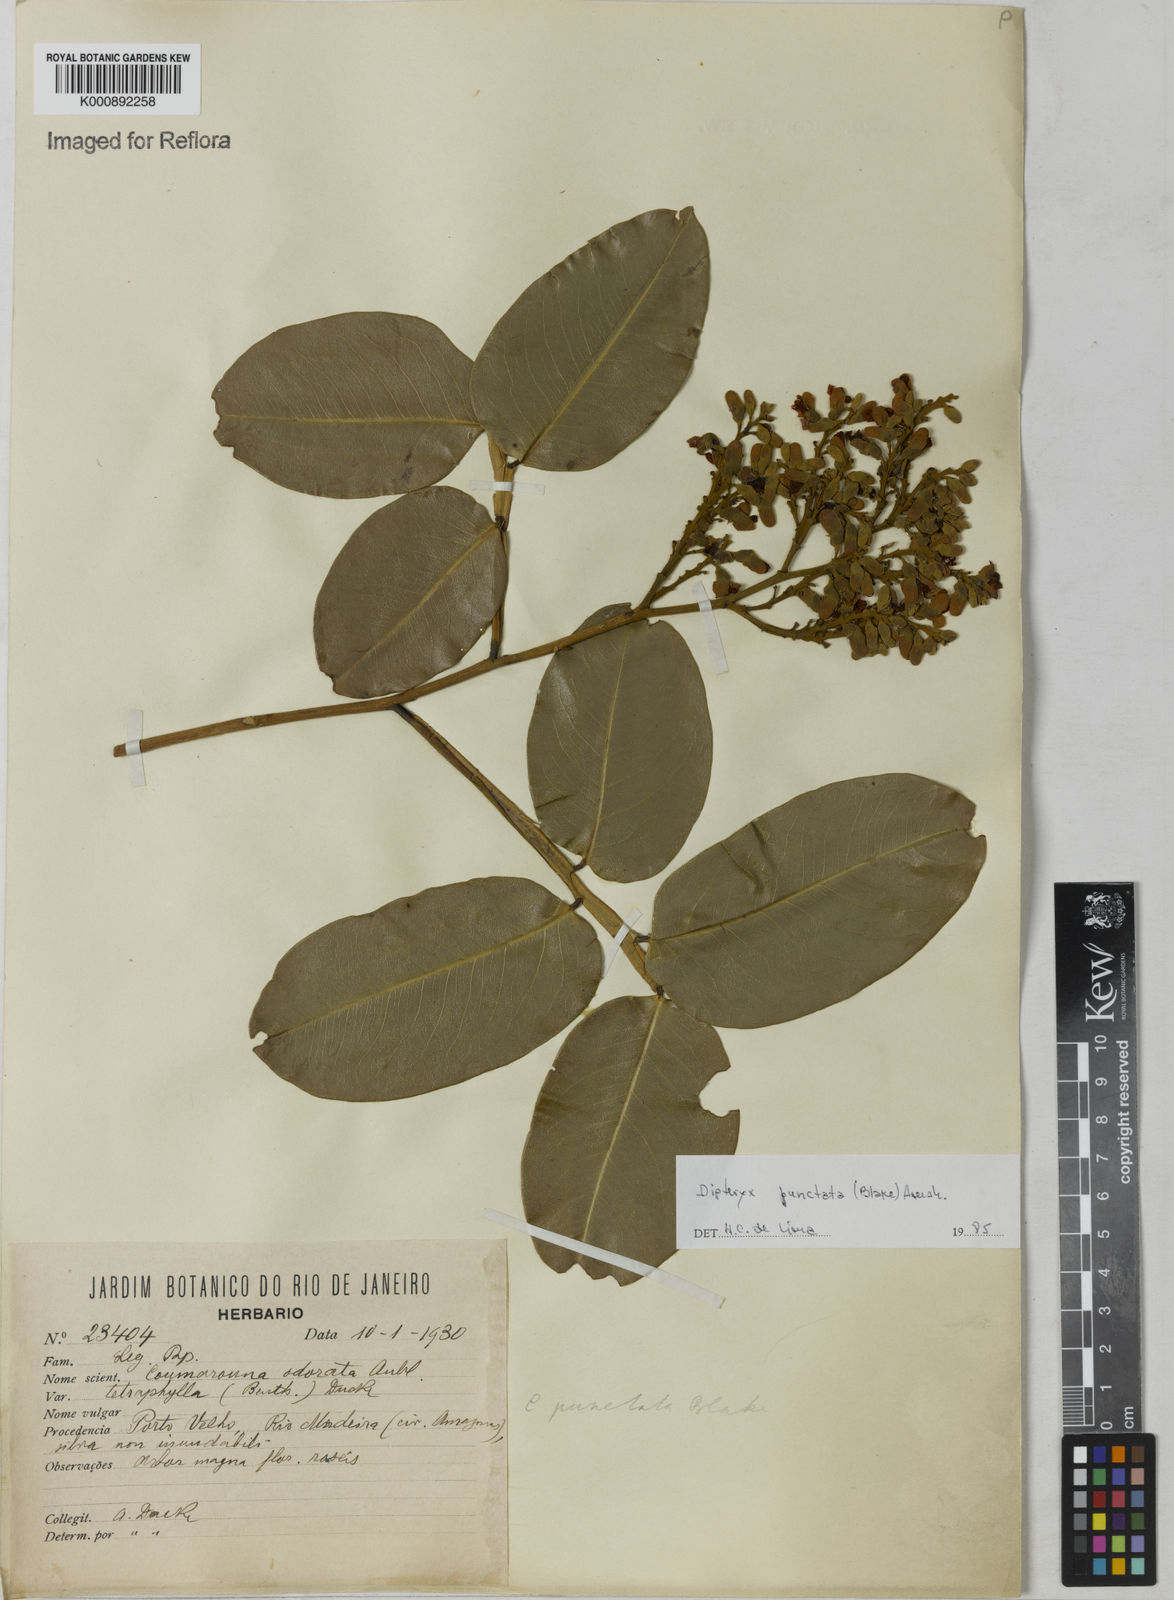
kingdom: Plantae
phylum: Tracheophyta
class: Magnoliopsida
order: Fabales
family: Fabaceae
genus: Dipteryx
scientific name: Dipteryx punctata
